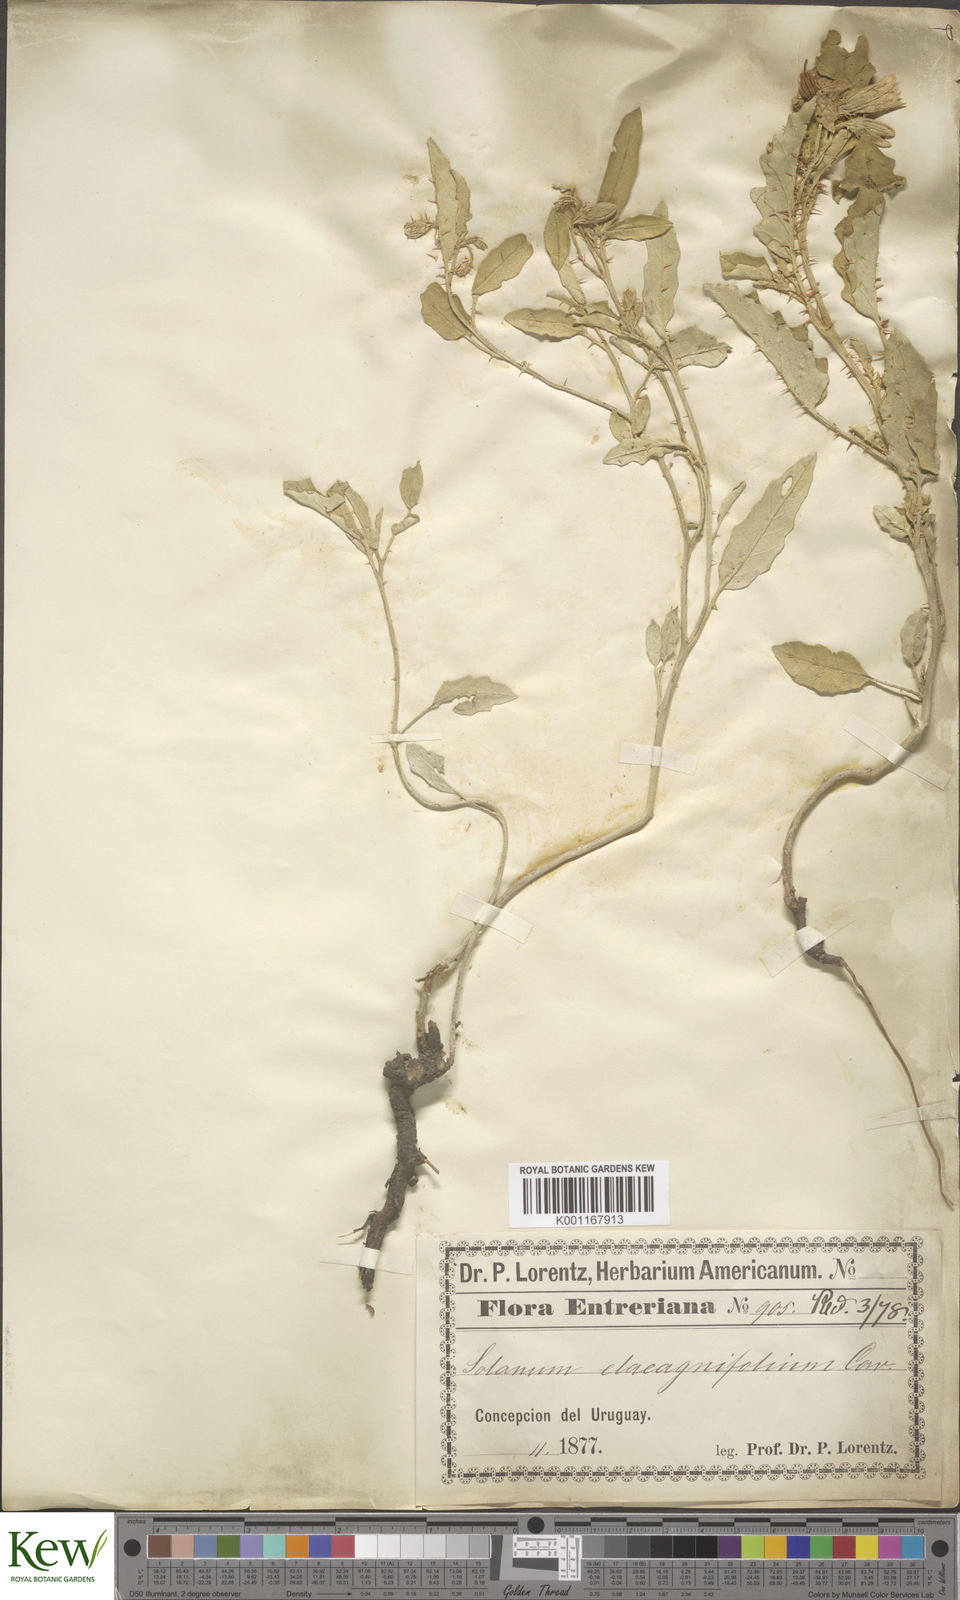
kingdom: Plantae
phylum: Tracheophyta
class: Magnoliopsida
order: Solanales
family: Solanaceae
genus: Solanum
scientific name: Solanum elaeagnifolium
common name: Silverleaf nightshade
